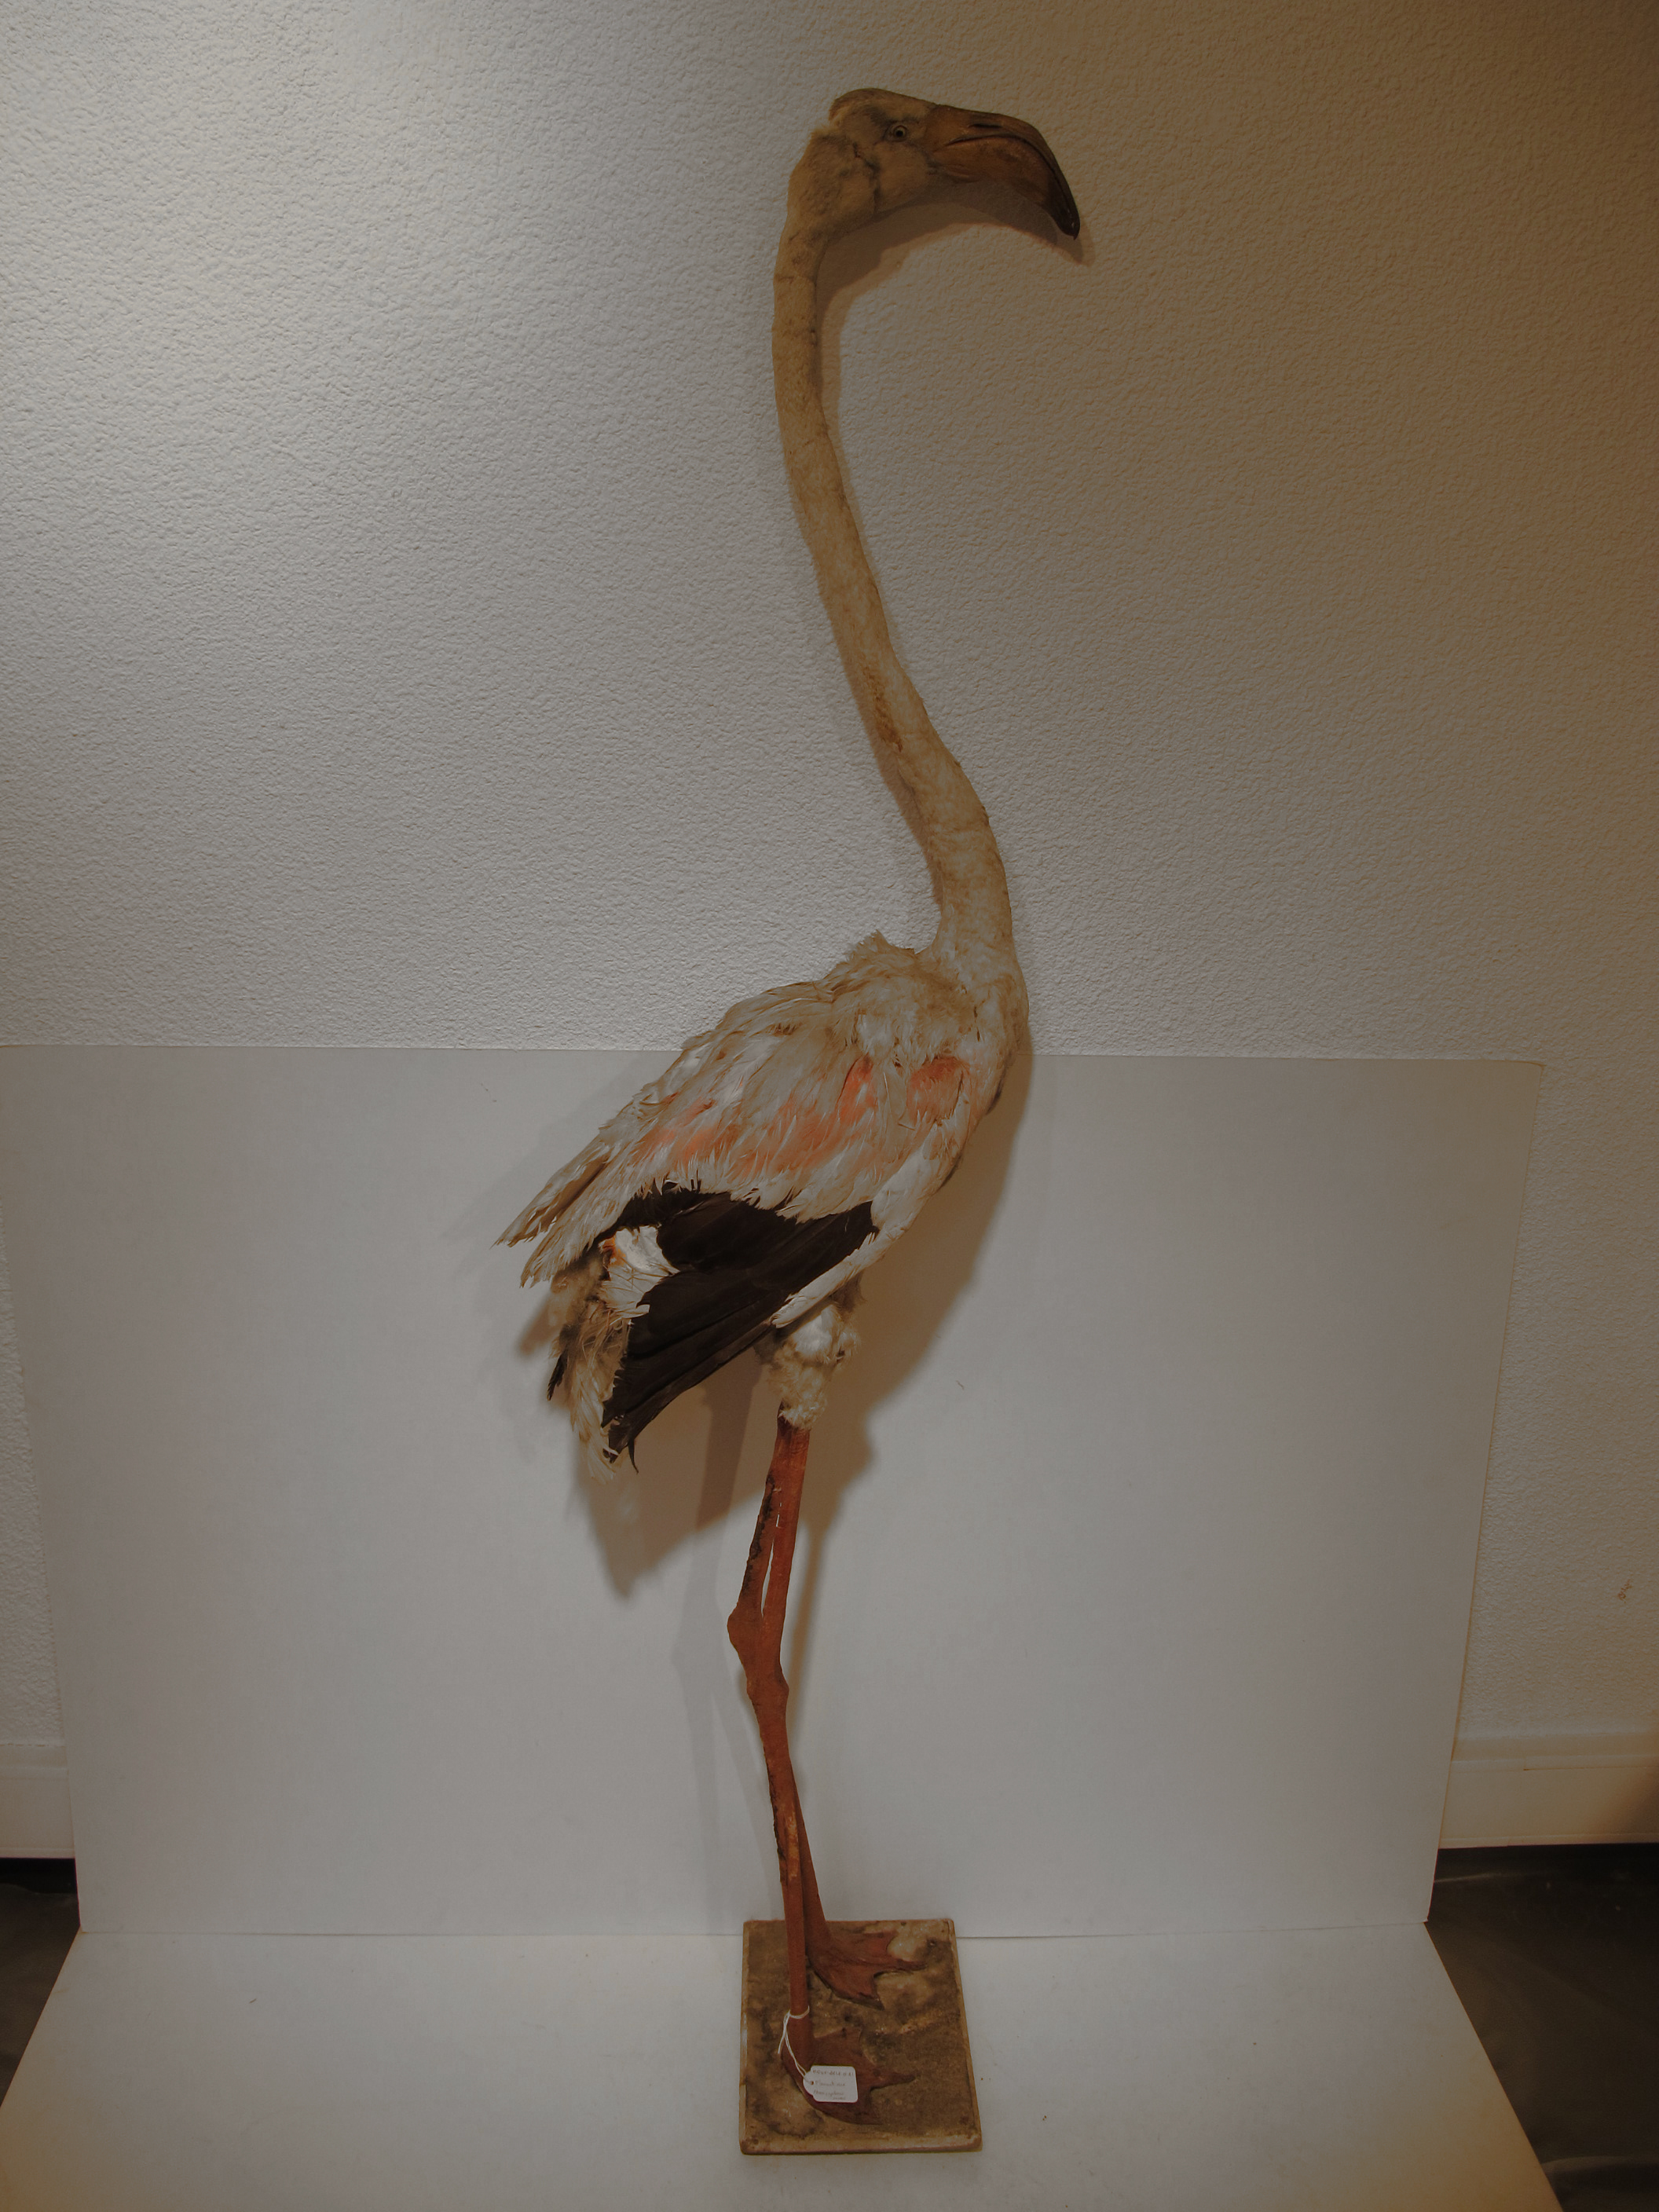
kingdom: Animalia
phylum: Chordata
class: Aves
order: Phoenicopteriformes
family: Phoenicopteridae
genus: Phoenicopterus
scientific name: Phoenicopterus roseus
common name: Greater Flamingo
